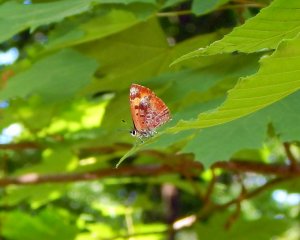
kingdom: Animalia
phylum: Arthropoda
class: Insecta
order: Lepidoptera
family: Lycaenidae
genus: Feniseca
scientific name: Feniseca tarquinius
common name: Harvester
